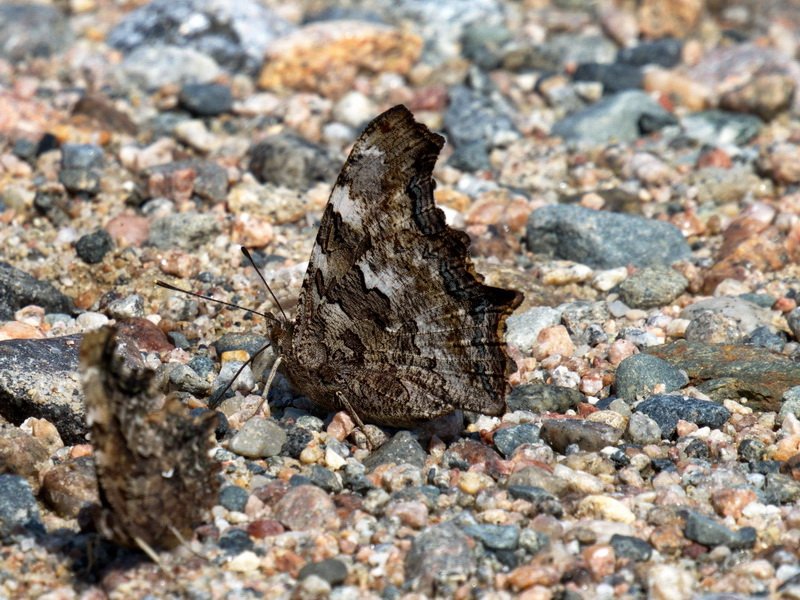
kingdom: Animalia
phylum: Arthropoda
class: Insecta
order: Lepidoptera
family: Nymphalidae
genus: Polygonia
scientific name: Polygonia vaualbum
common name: Compton Tortoiseshell
